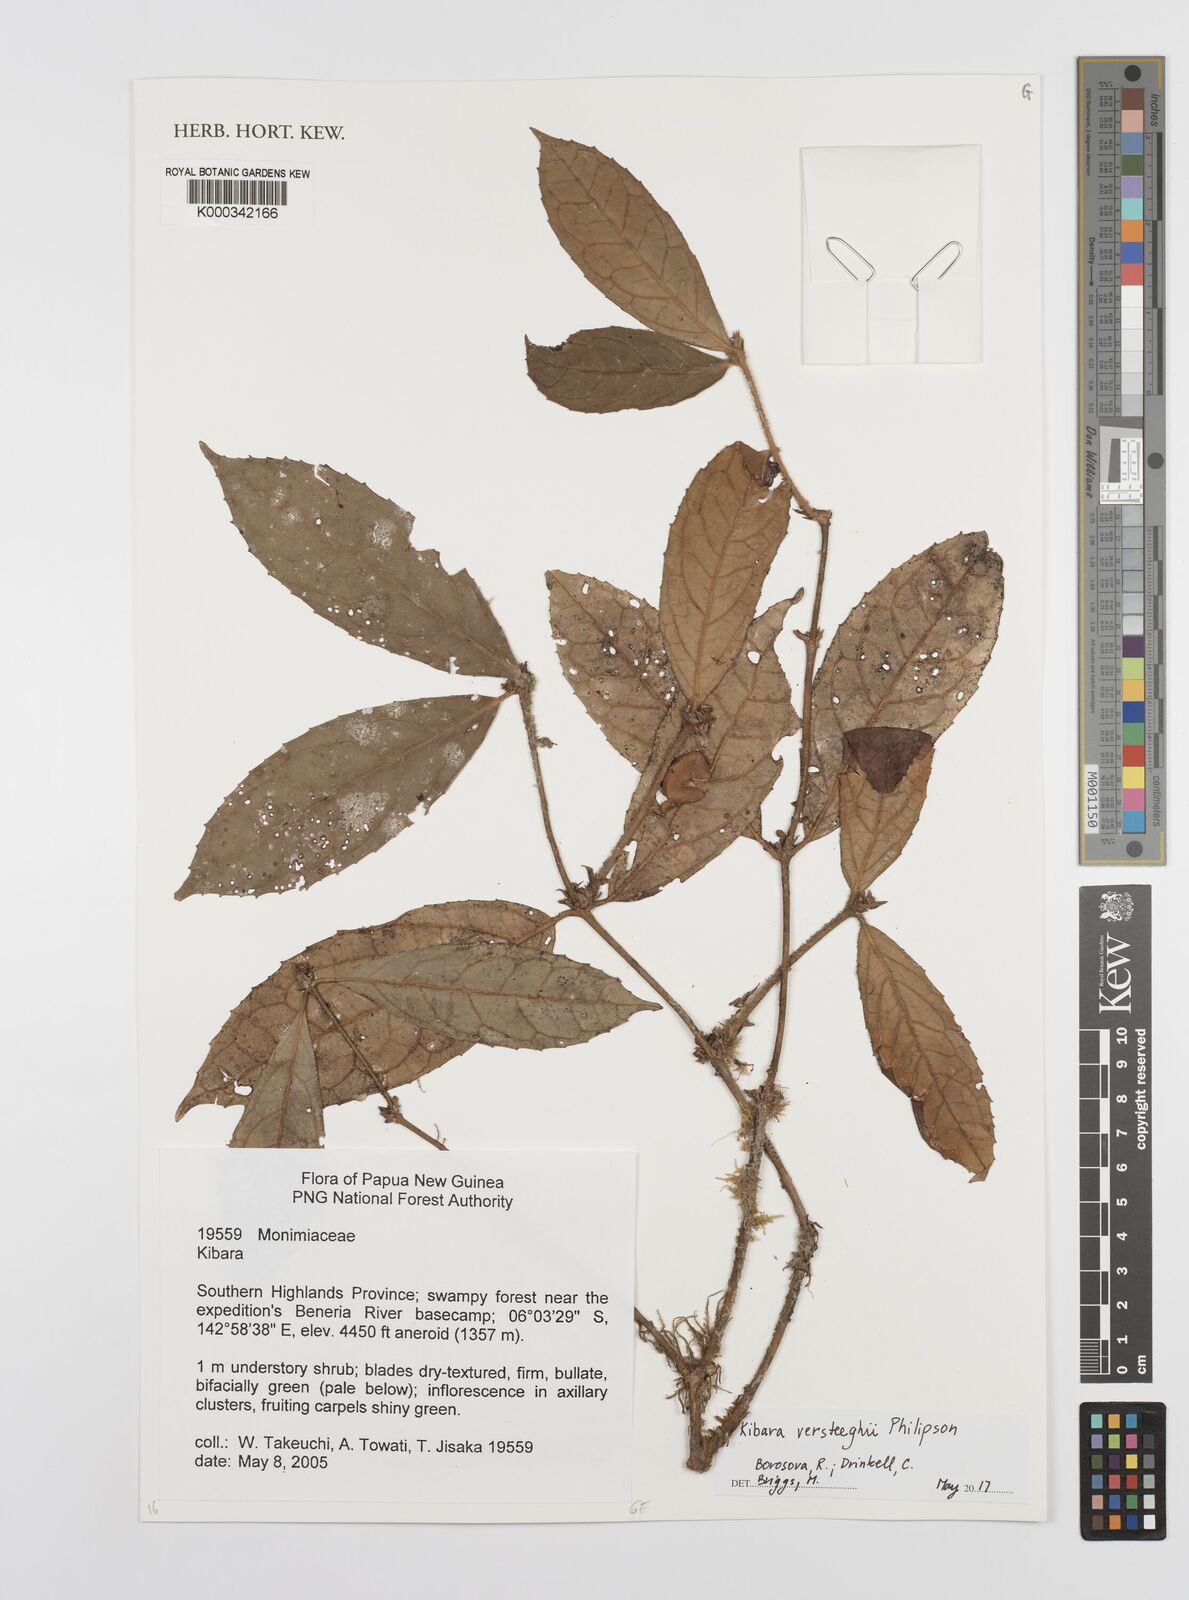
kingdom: Plantae
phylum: Tracheophyta
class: Magnoliopsida
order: Laurales
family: Monimiaceae
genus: Kibara
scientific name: Kibara versteeghii
